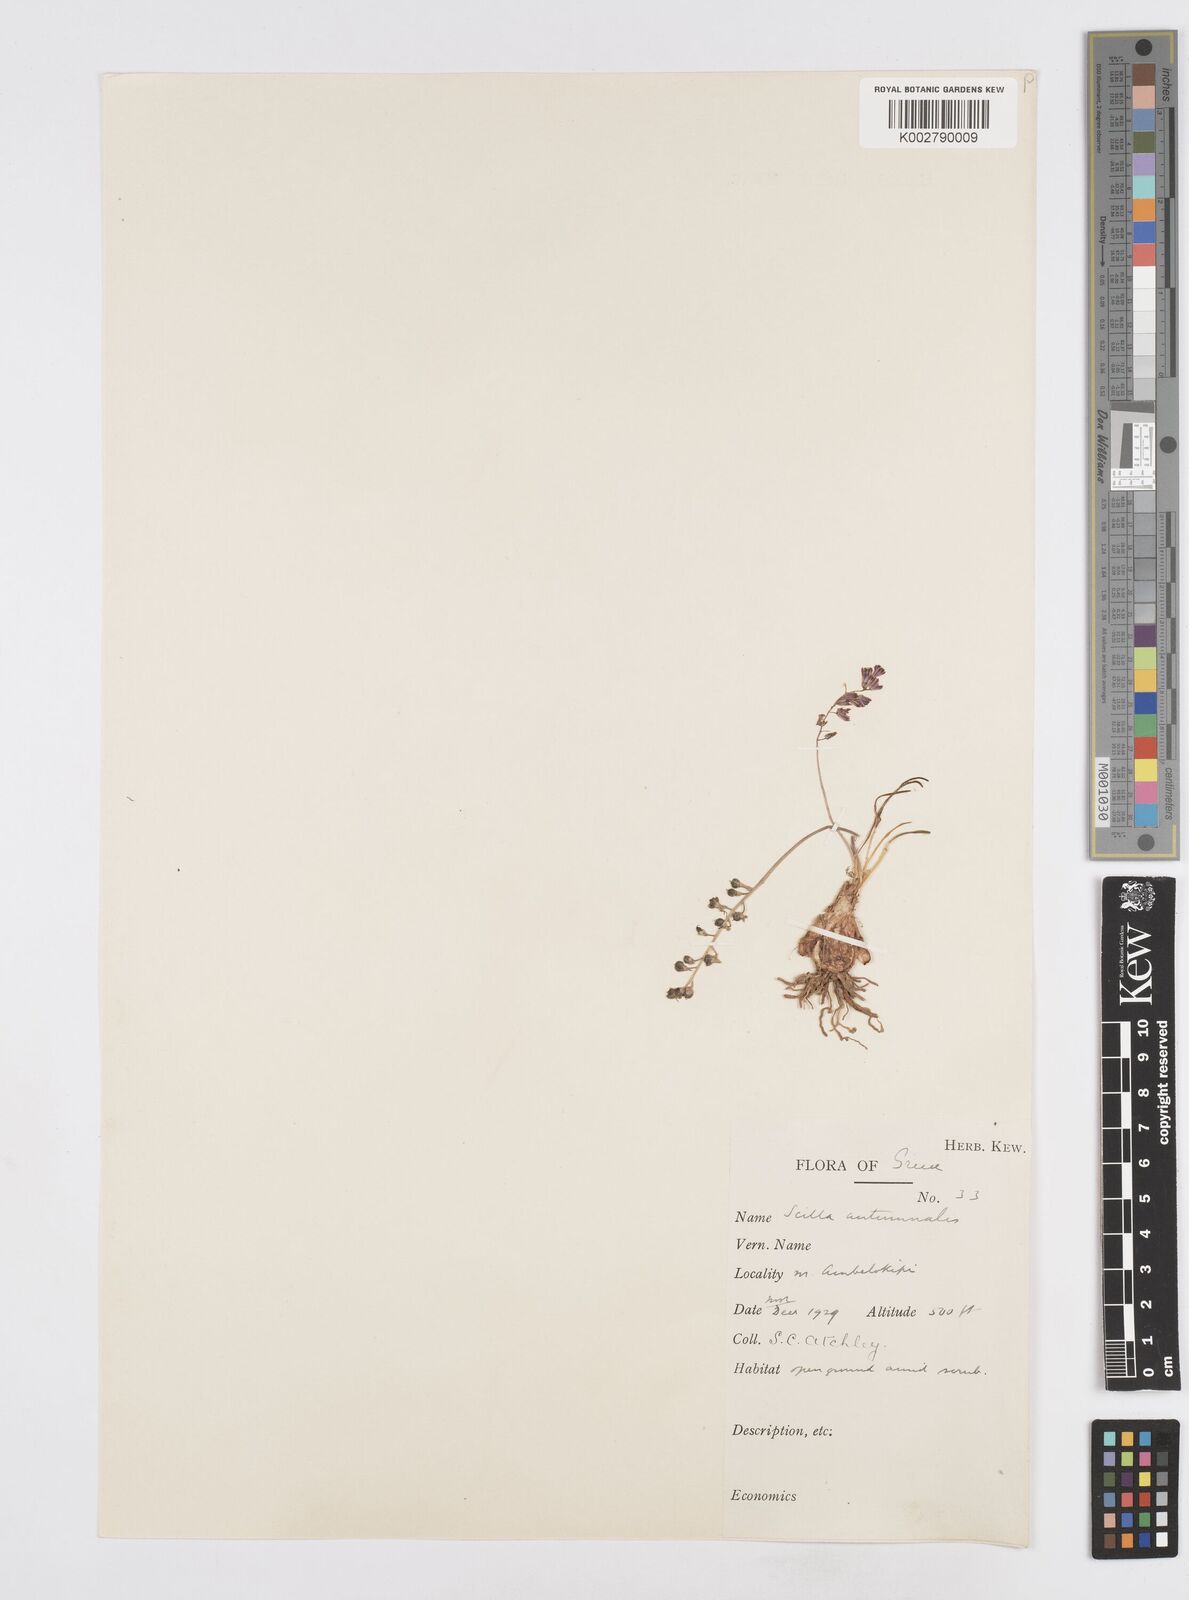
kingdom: Plantae
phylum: Tracheophyta
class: Liliopsida
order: Asparagales
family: Asparagaceae
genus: Prospero
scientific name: Prospero autumnale
